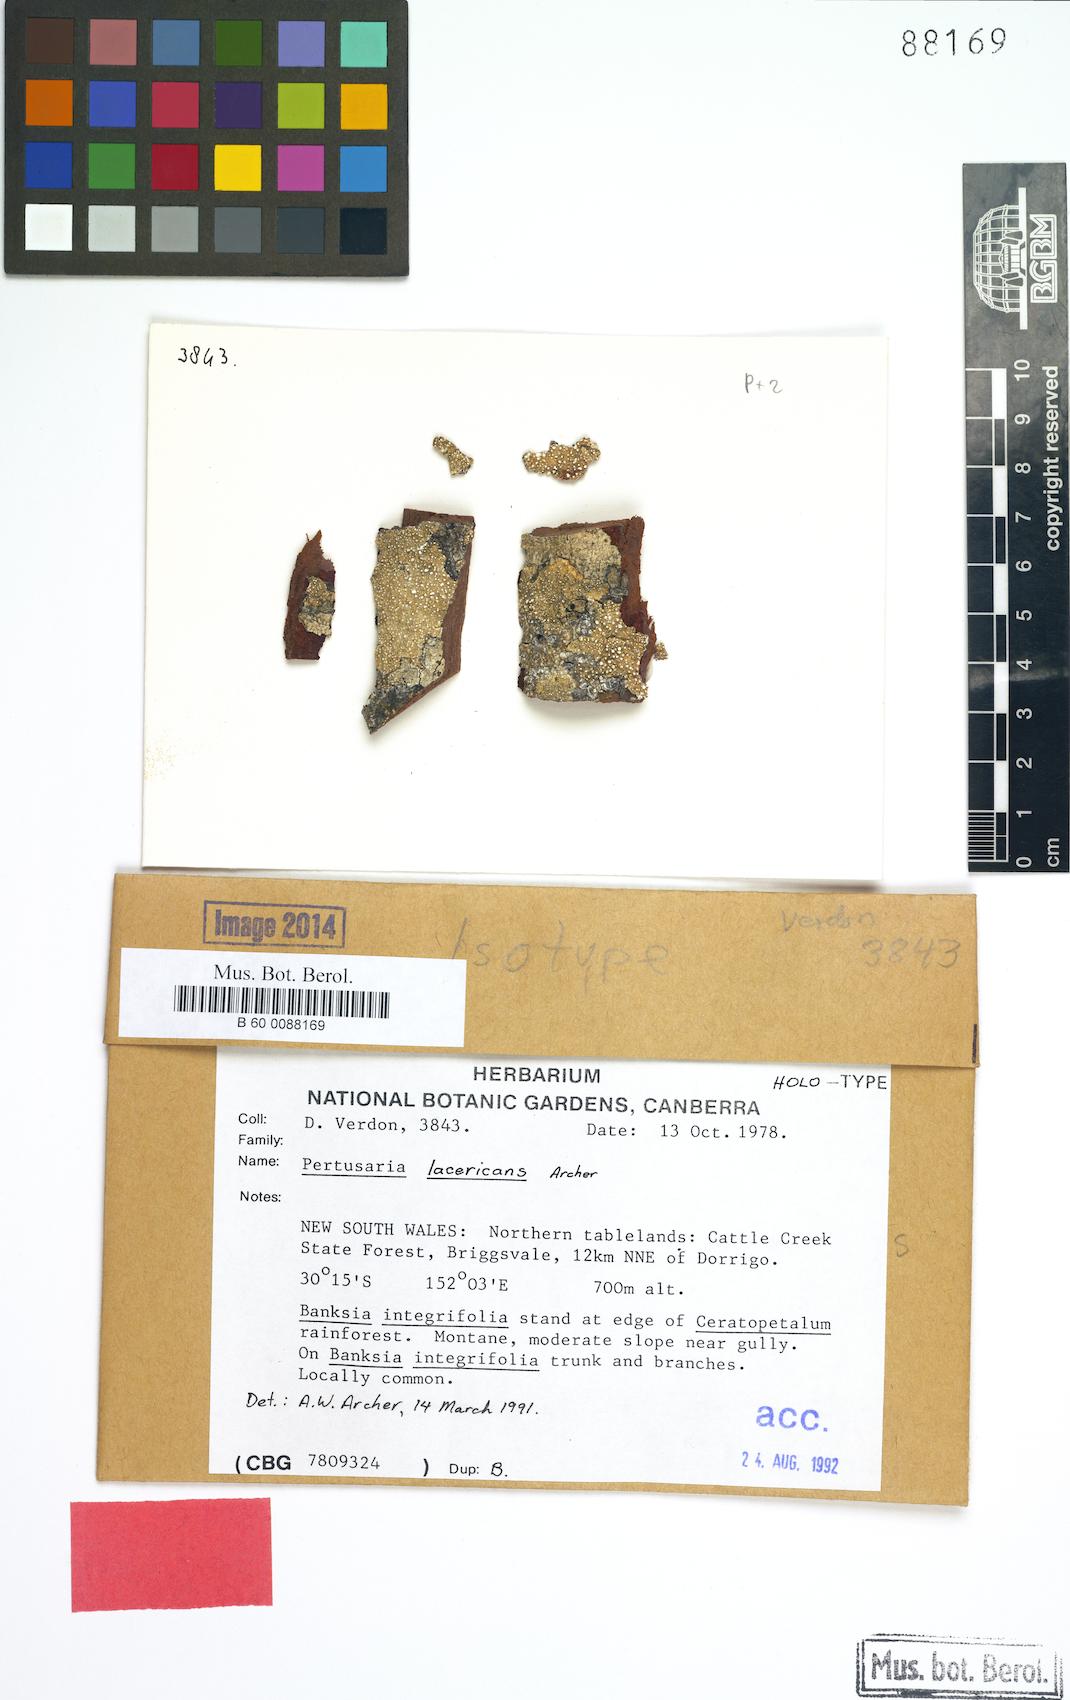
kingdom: Fungi
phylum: Ascomycota
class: Lecanoromycetes
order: Pertusariales
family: Pertusariaceae
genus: Lepra
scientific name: Lepra lacericans
